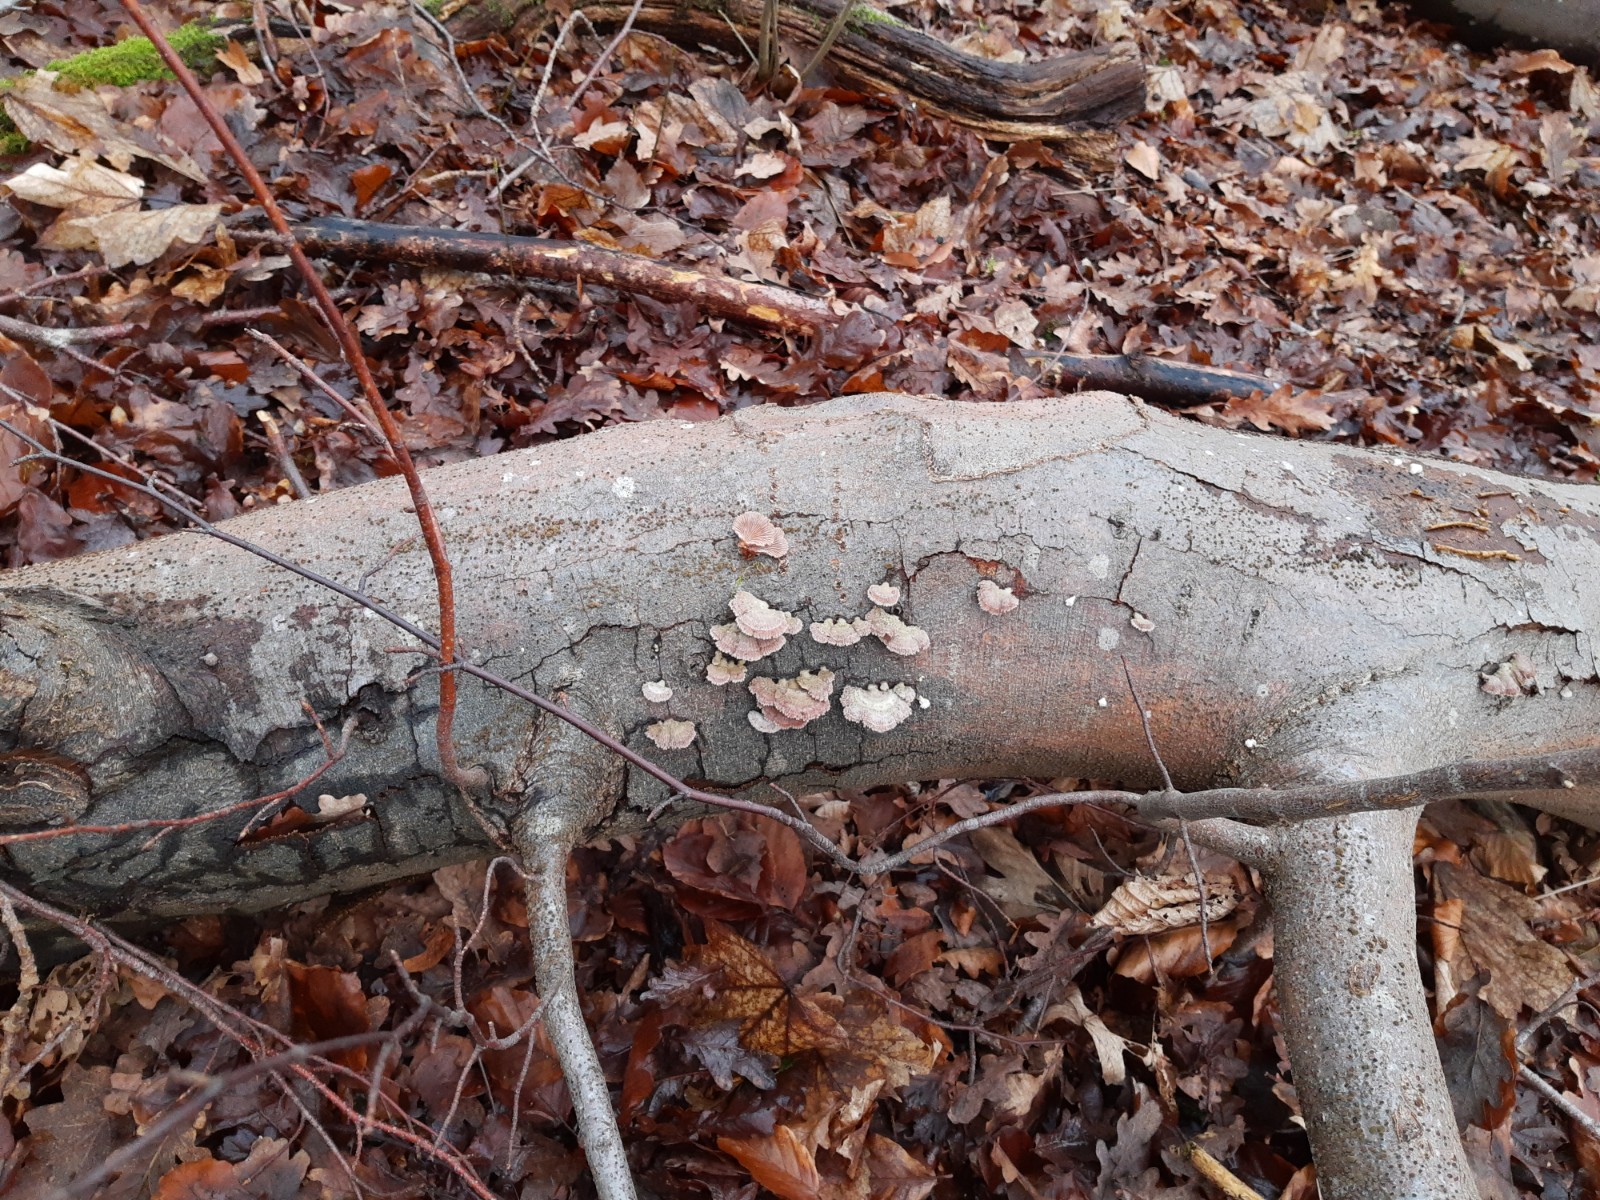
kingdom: Fungi
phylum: Basidiomycota
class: Agaricomycetes
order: Agaricales
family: Schizophyllaceae
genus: Schizophyllum
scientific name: Schizophyllum commune
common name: kløvblad
